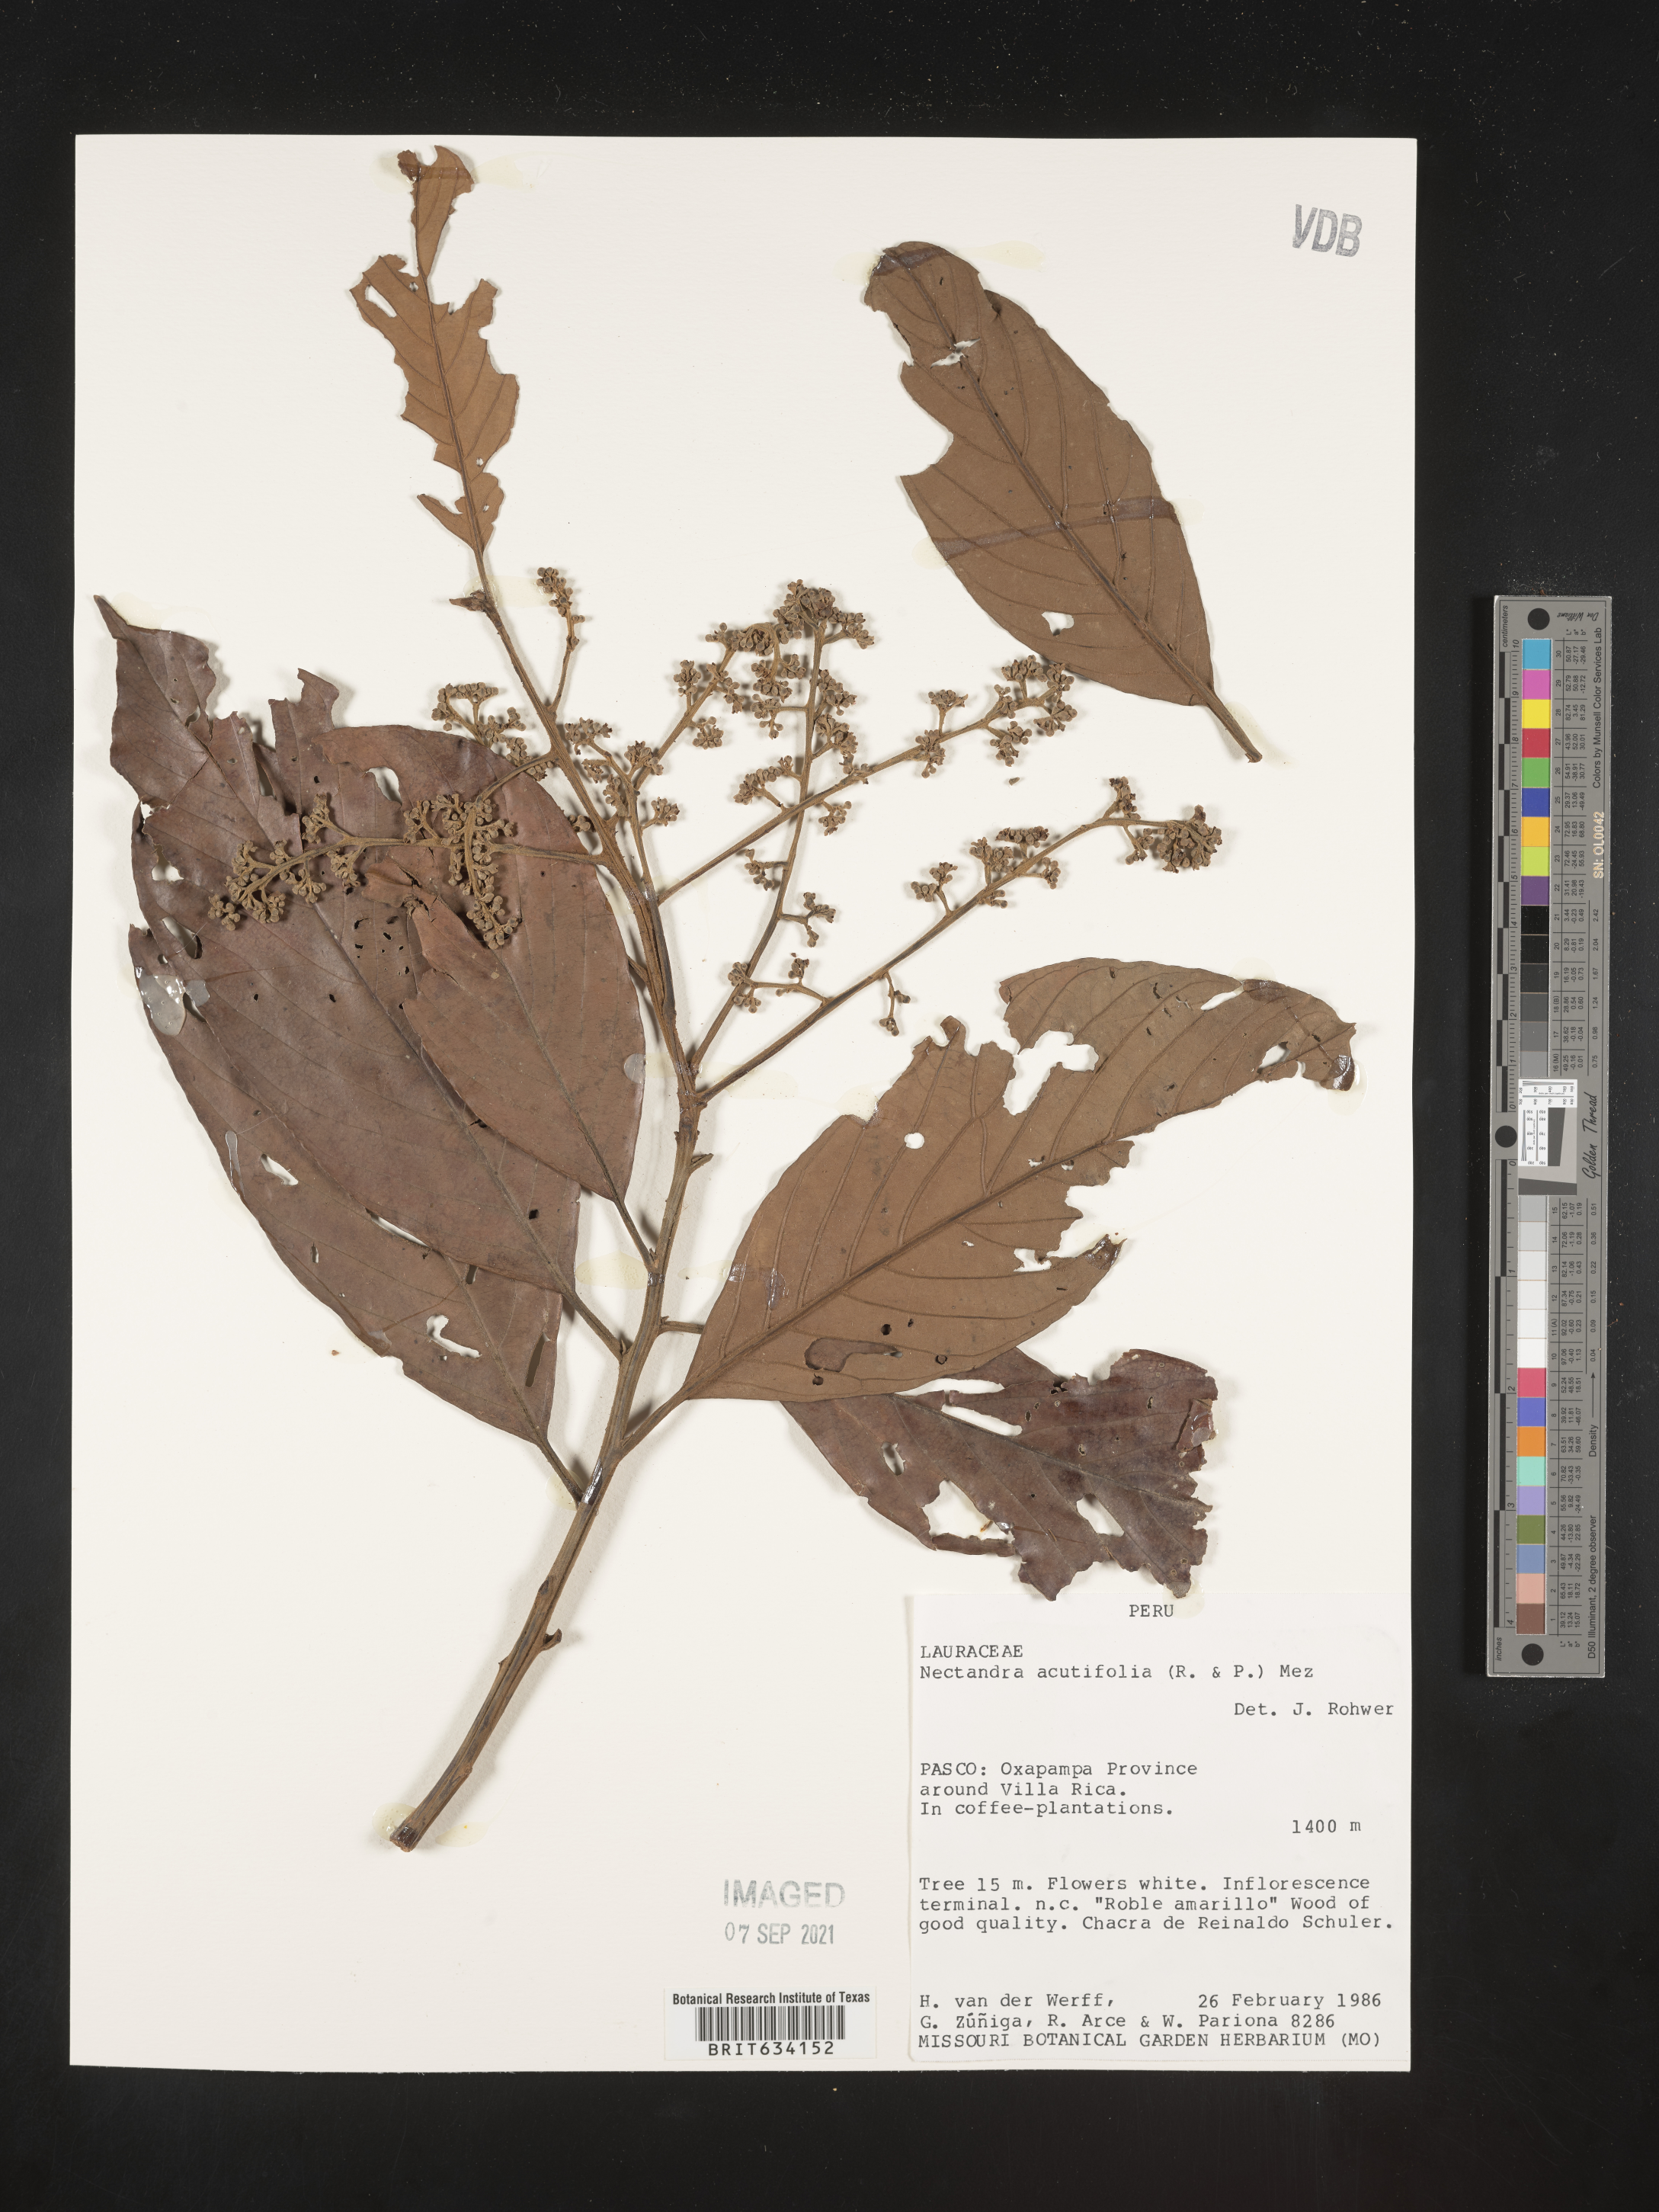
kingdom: Plantae
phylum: Tracheophyta
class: Magnoliopsida
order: Laurales
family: Lauraceae
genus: Nectandra
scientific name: Nectandra
